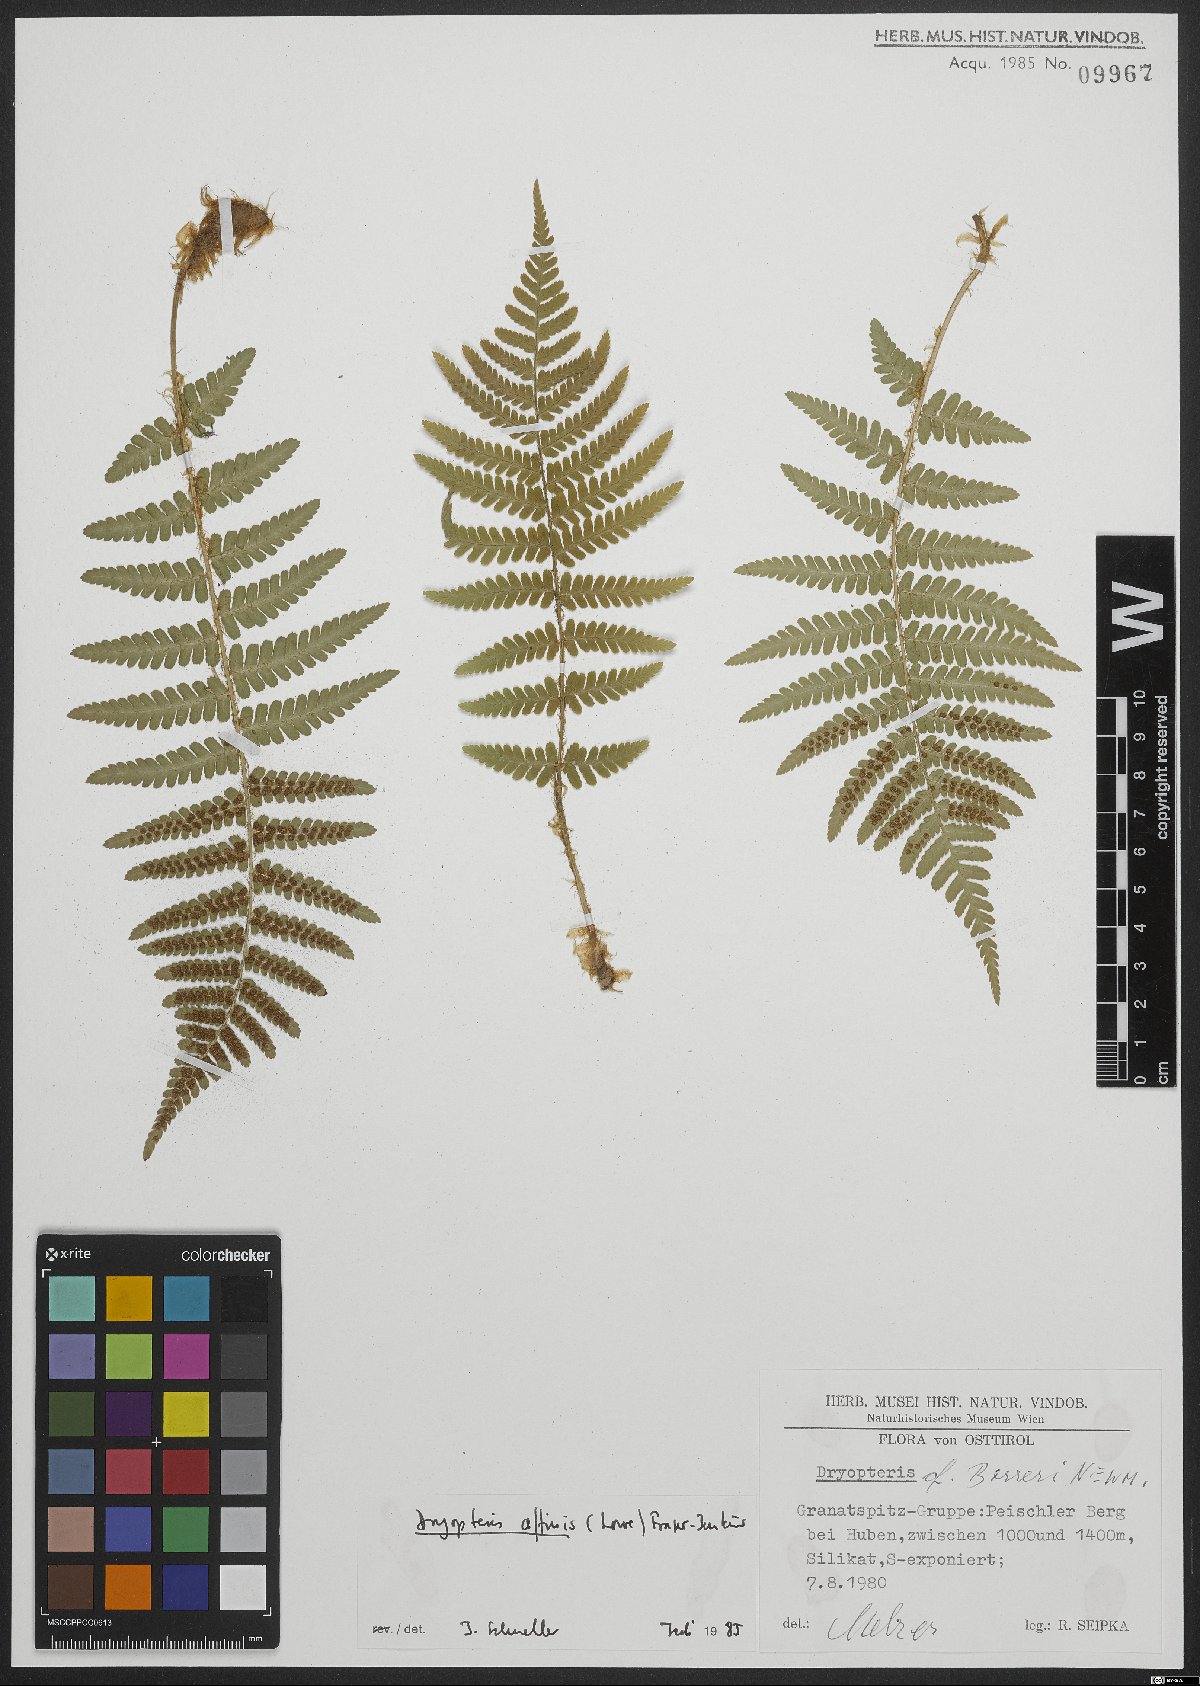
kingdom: Plantae
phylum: Tracheophyta
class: Polypodiopsida
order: Polypodiales
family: Dryopteridaceae
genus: Dryopteris
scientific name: Dryopteris borreri
